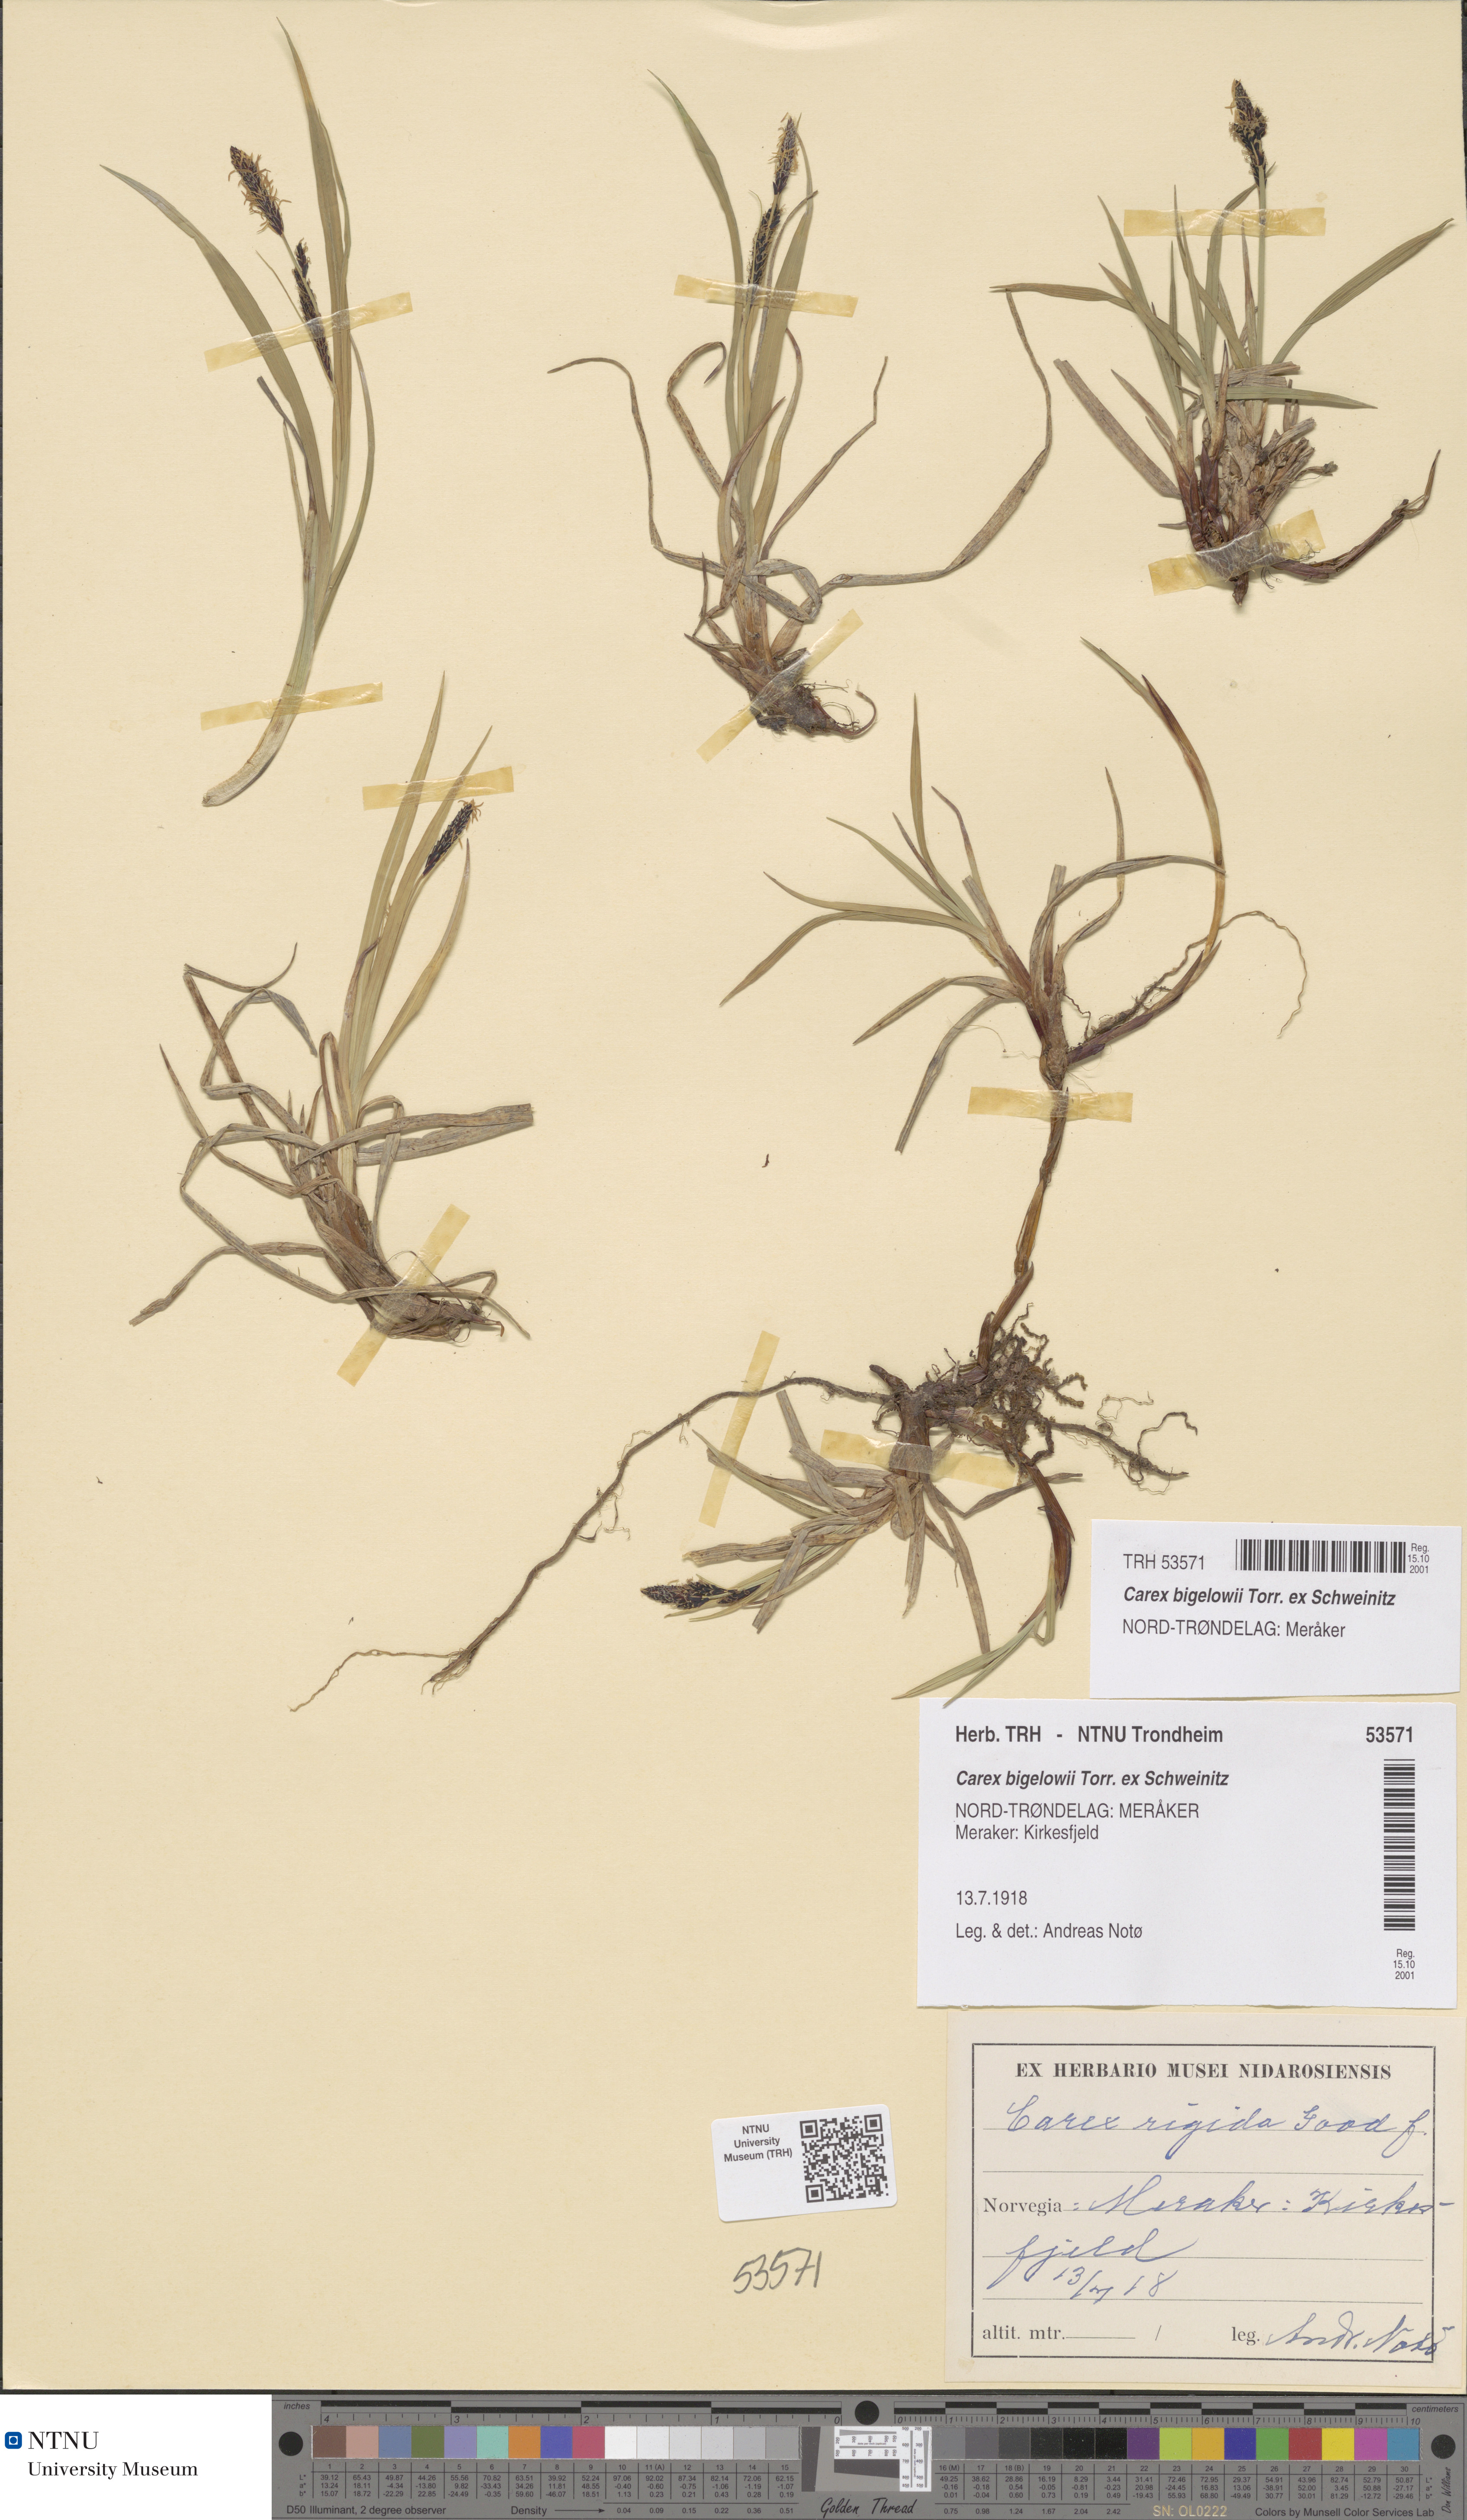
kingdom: Plantae
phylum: Tracheophyta
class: Liliopsida
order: Poales
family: Cyperaceae
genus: Carex
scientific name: Carex bigelowii
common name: Stiff sedge
